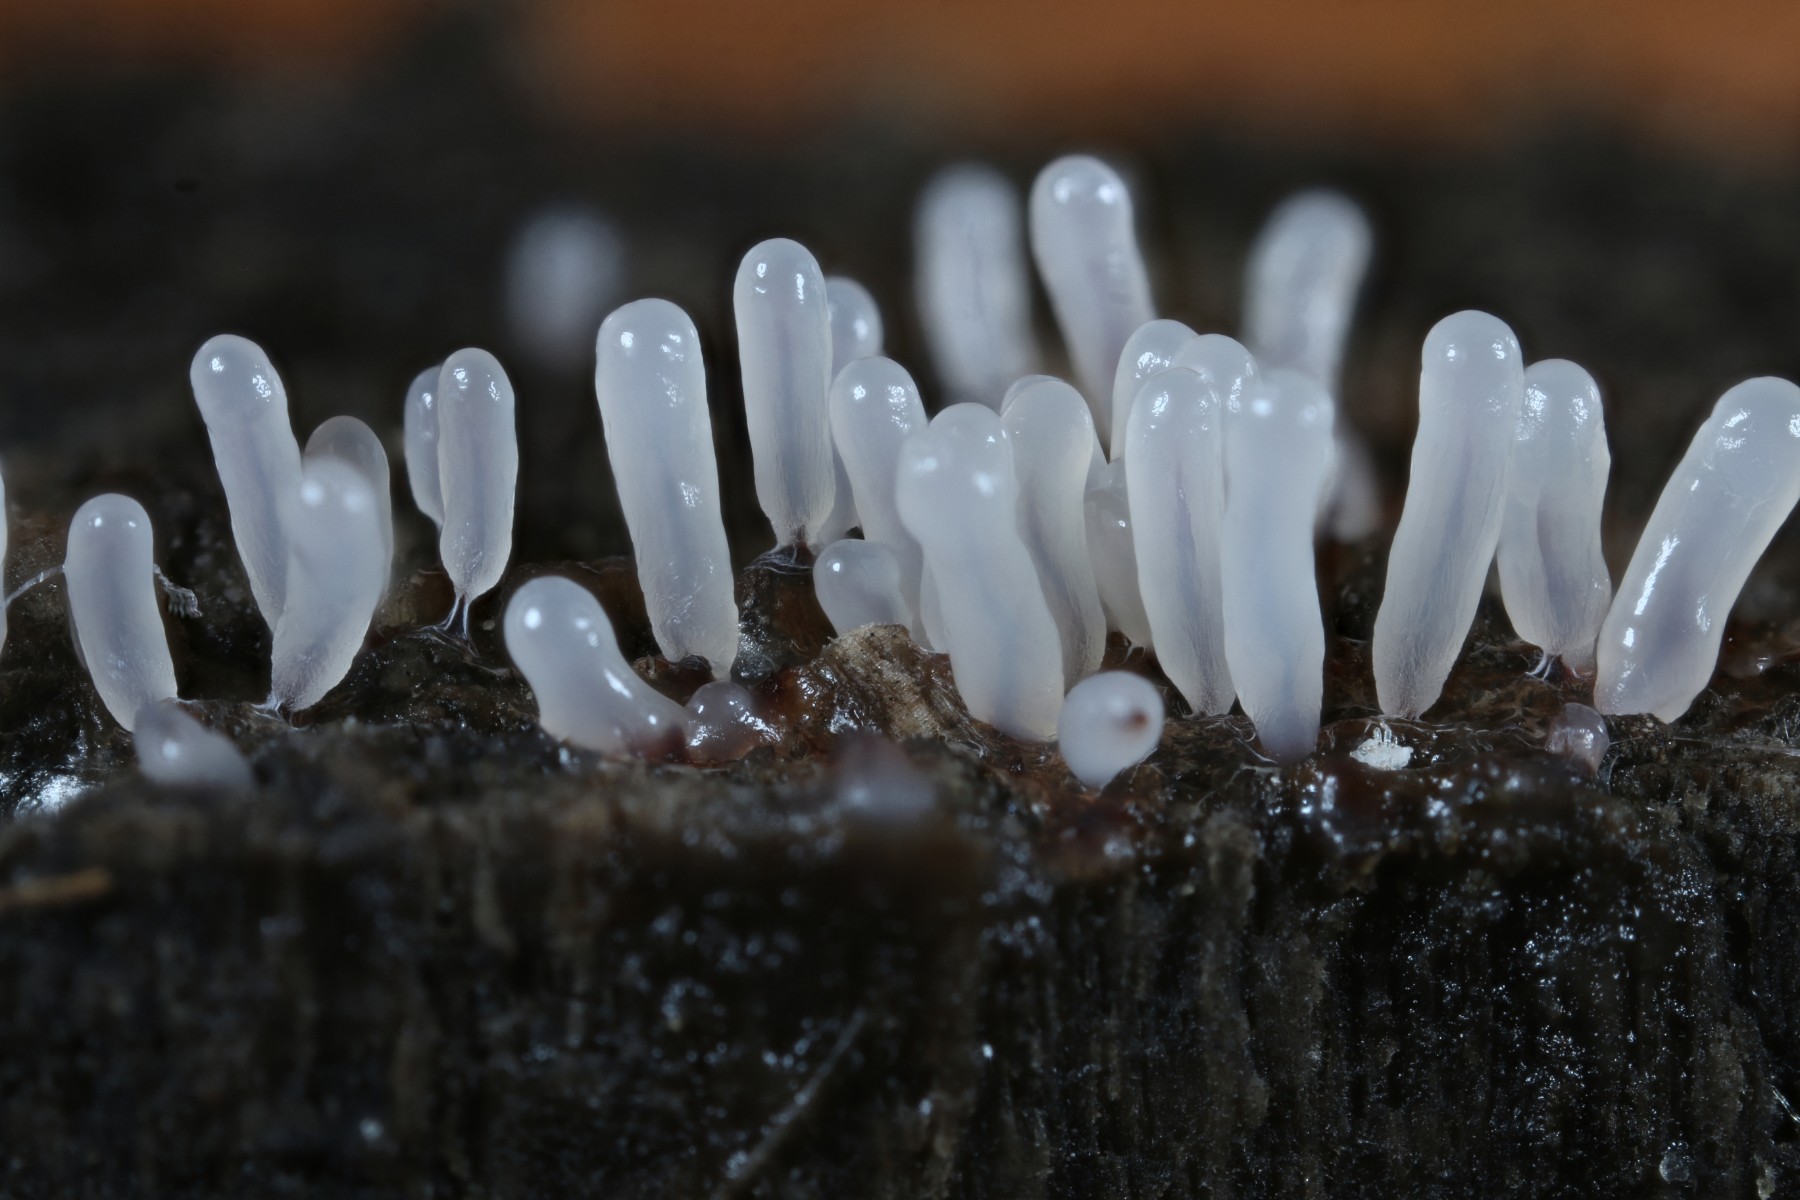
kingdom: Protozoa
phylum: Mycetozoa
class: Myxomycetes
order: Stemonitidales
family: Stemonitidaceae
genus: Stemonitopsis
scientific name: Stemonitopsis typhina
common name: skinnende støvkølle
